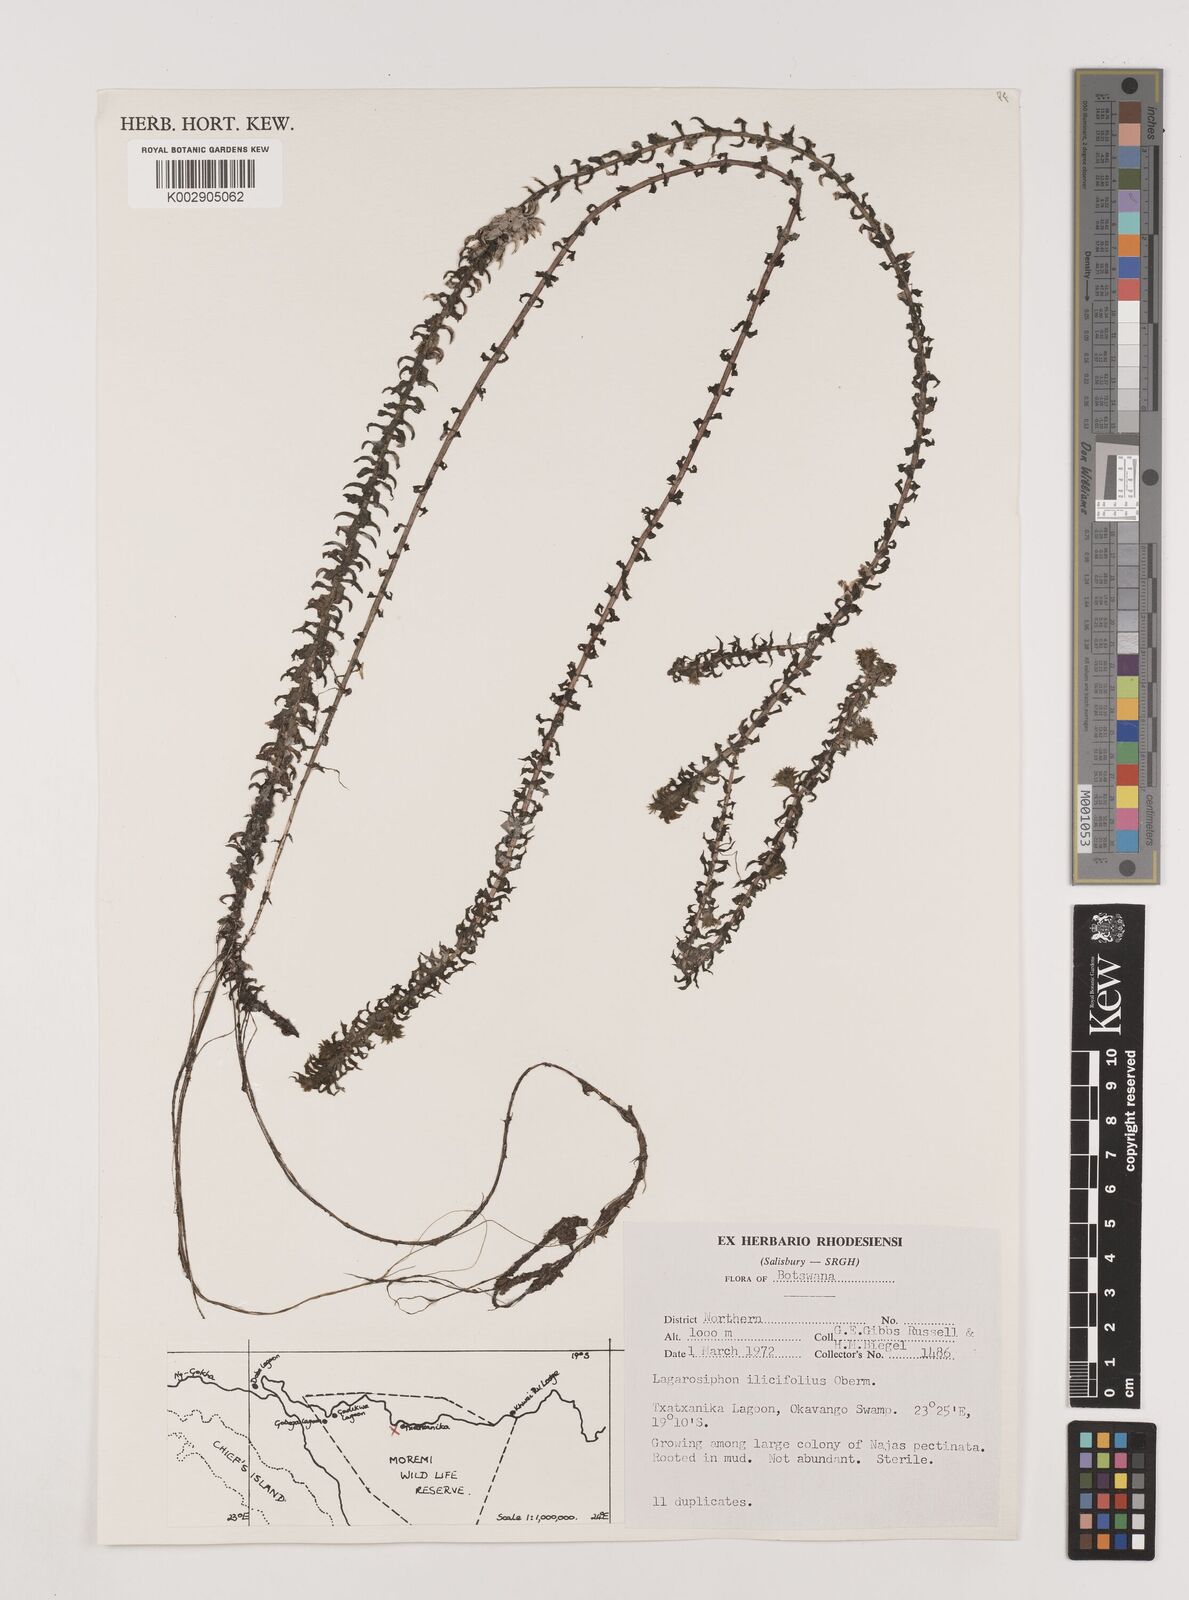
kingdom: Plantae
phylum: Tracheophyta
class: Liliopsida
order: Alismatales
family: Hydrocharitaceae
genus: Lagarosiphon
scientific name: Lagarosiphon ilicifolius
